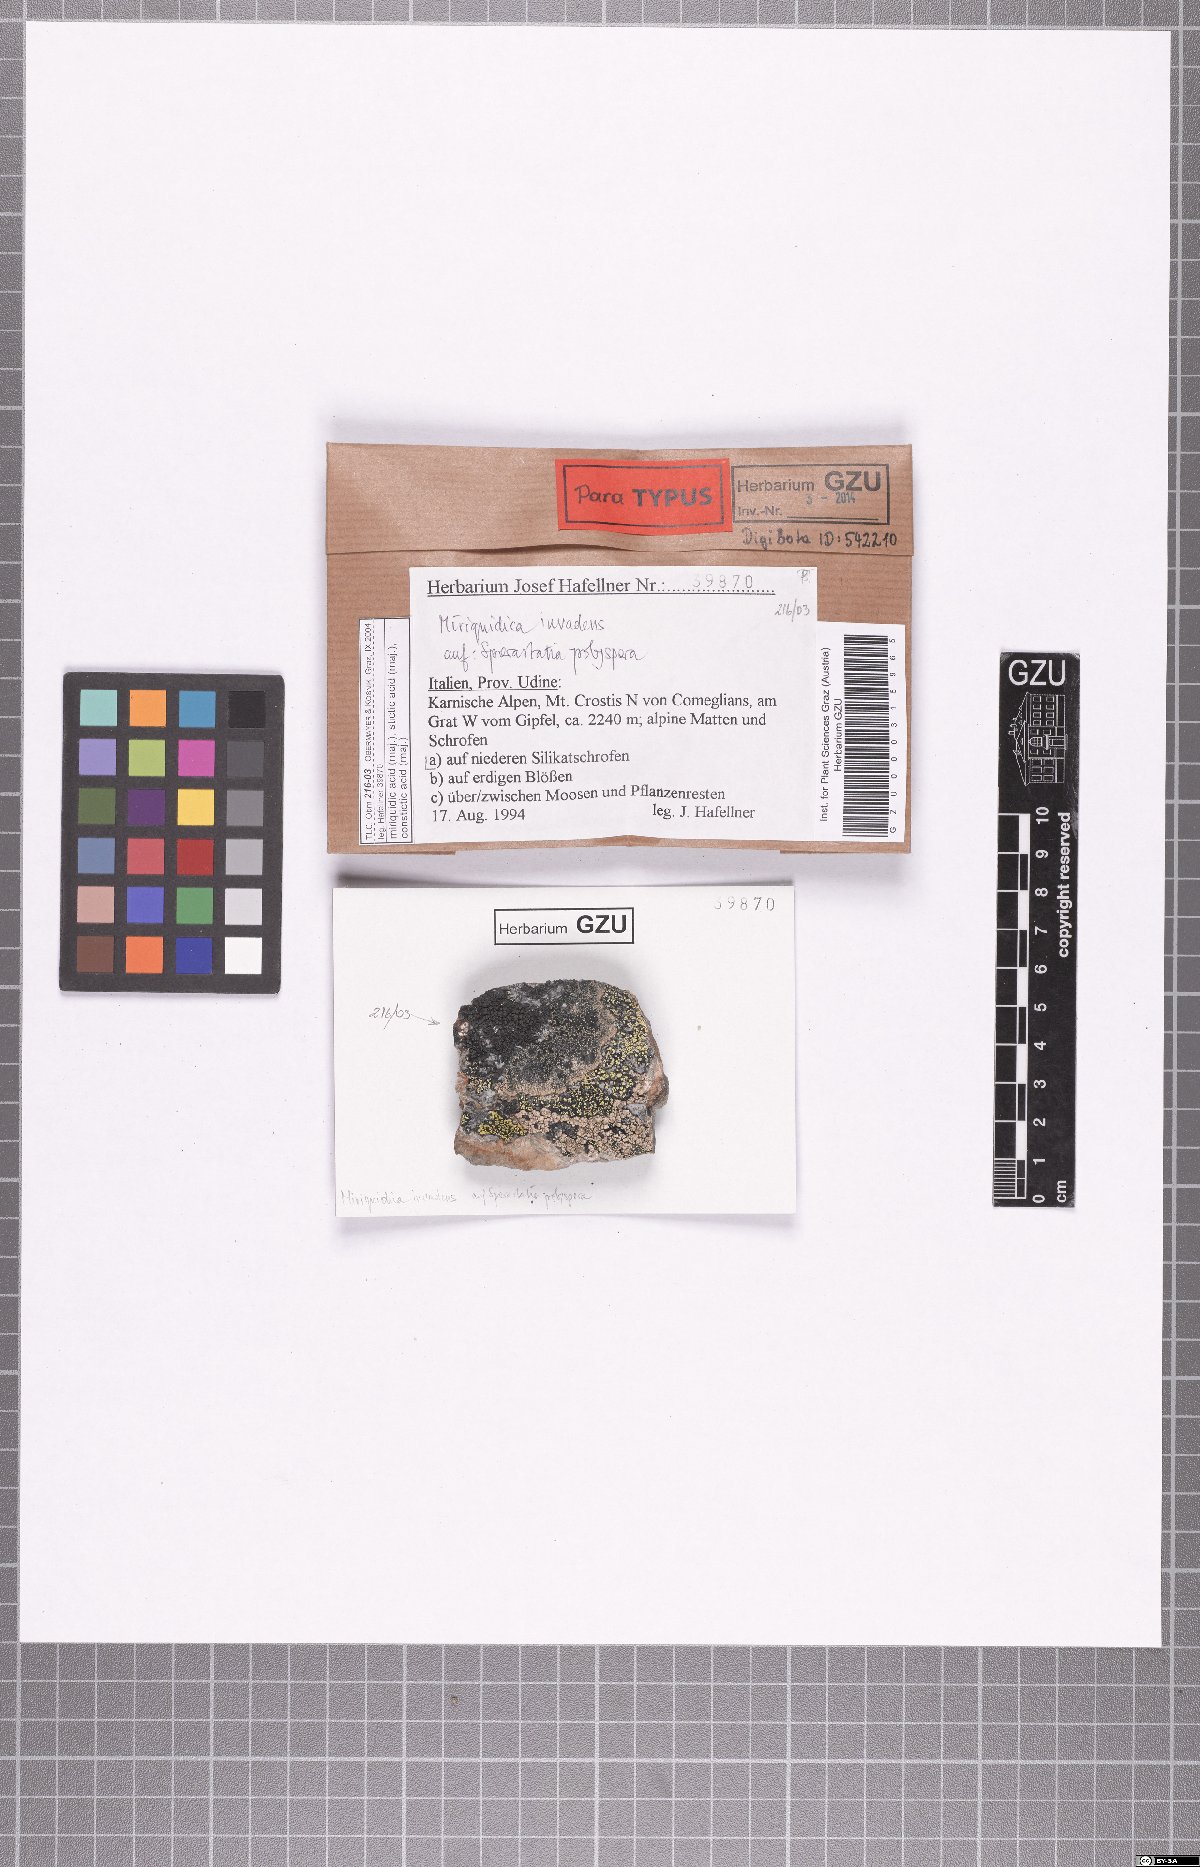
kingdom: Fungi
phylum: Ascomycota
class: Lecanoromycetes
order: Lecanorales
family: Lecanoraceae
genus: Miriquidica
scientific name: Miriquidica invadens
